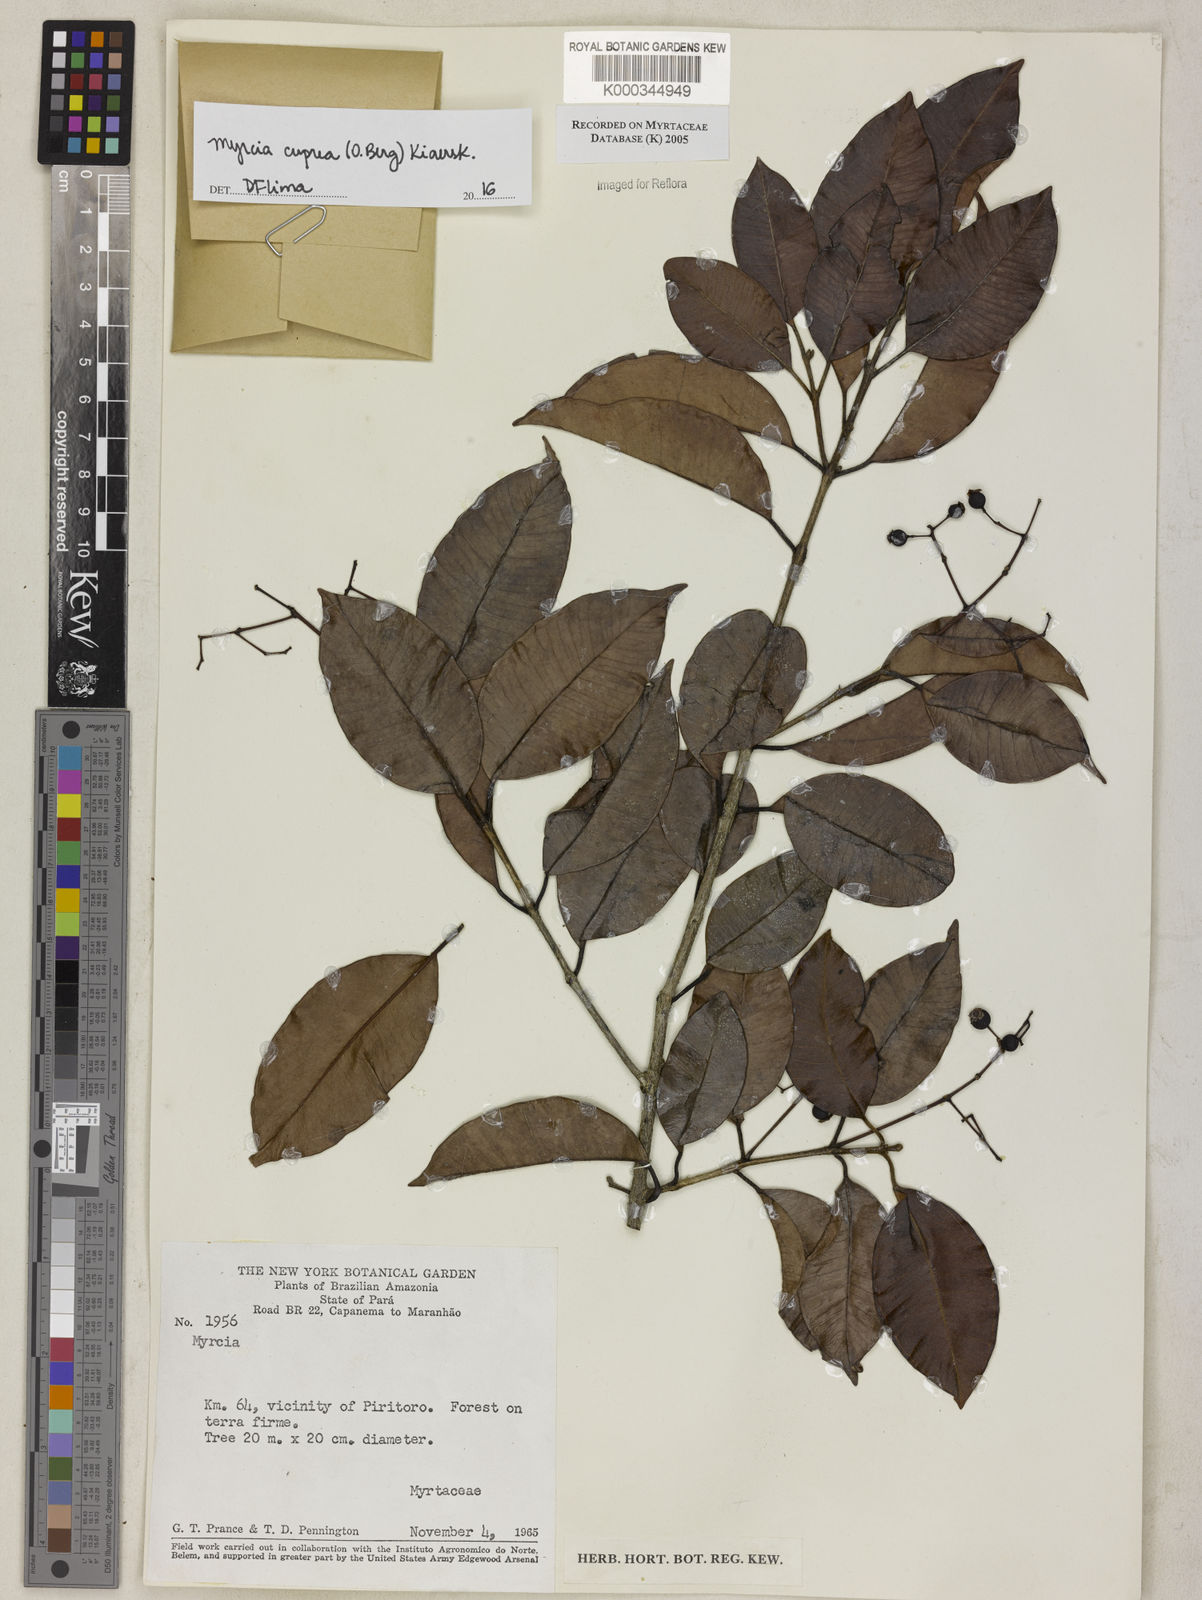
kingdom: Plantae
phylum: Tracheophyta
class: Magnoliopsida
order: Myrtales
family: Myrtaceae
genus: Myrcia
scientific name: Myrcia
